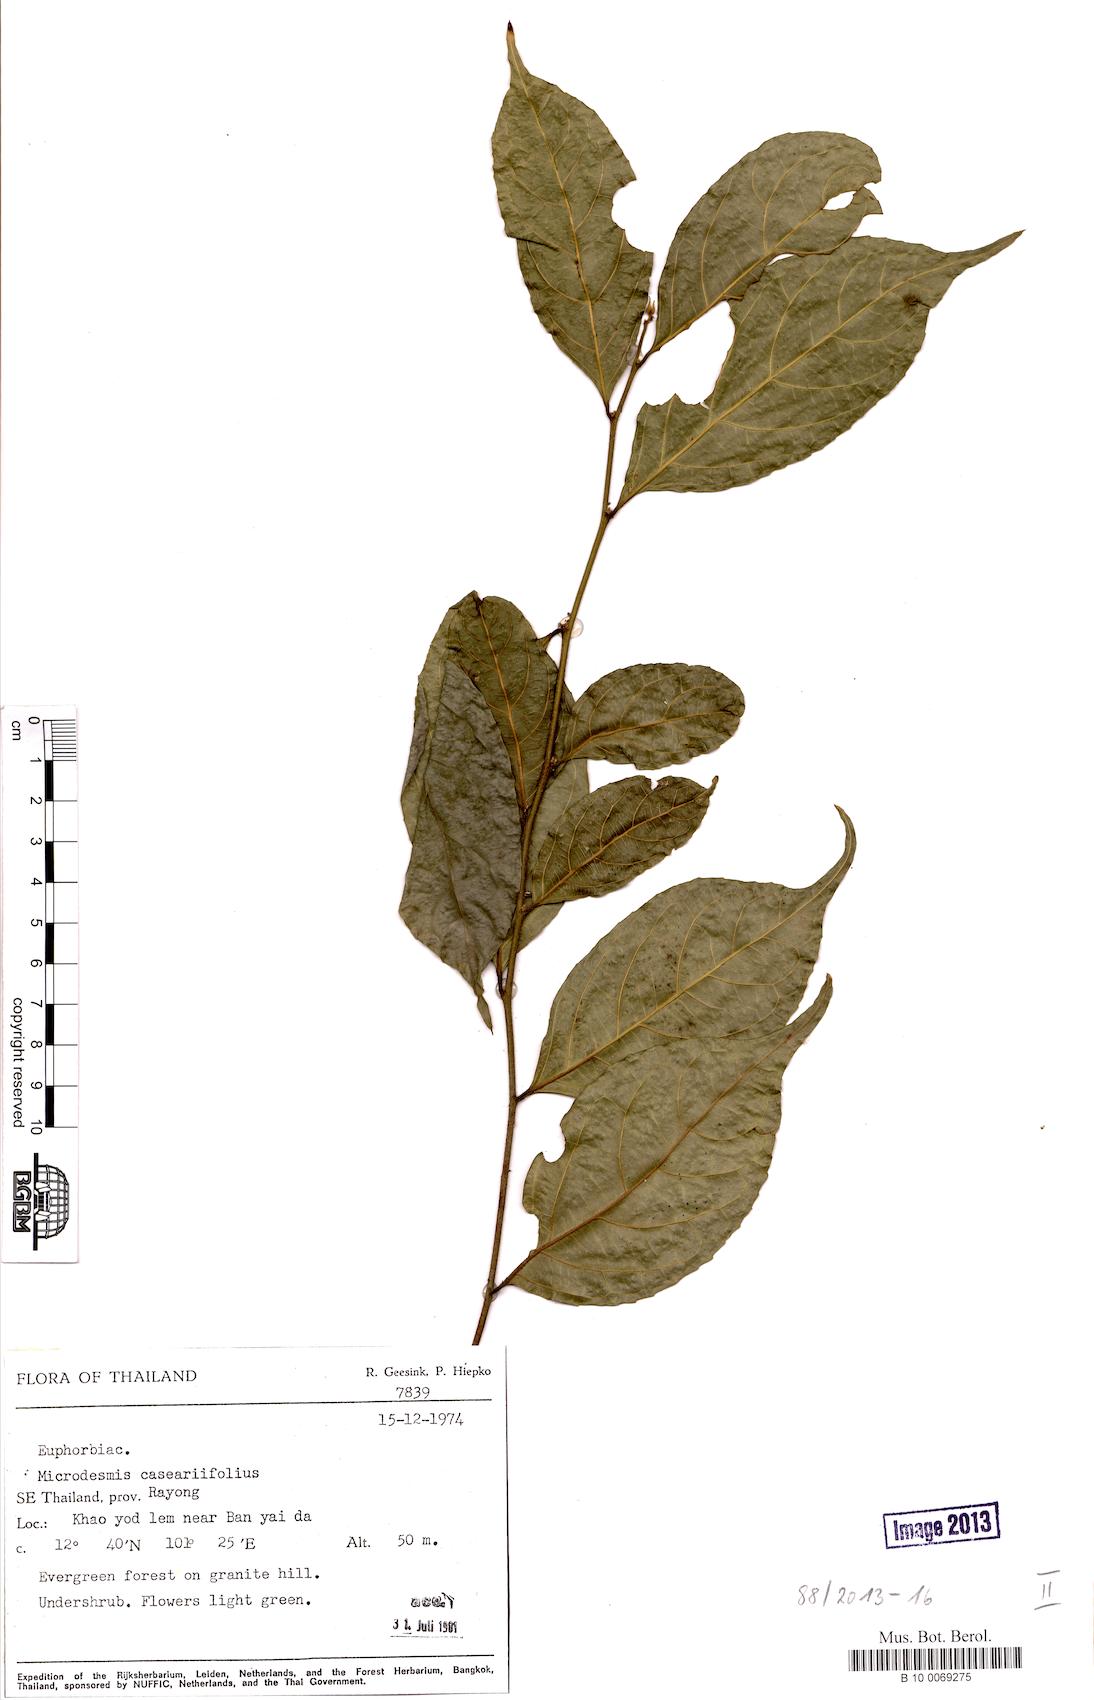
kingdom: Plantae
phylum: Tracheophyta
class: Magnoliopsida
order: Malpighiales
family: Pandaceae
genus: Microdesmis
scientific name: Microdesmis caseariifolia
